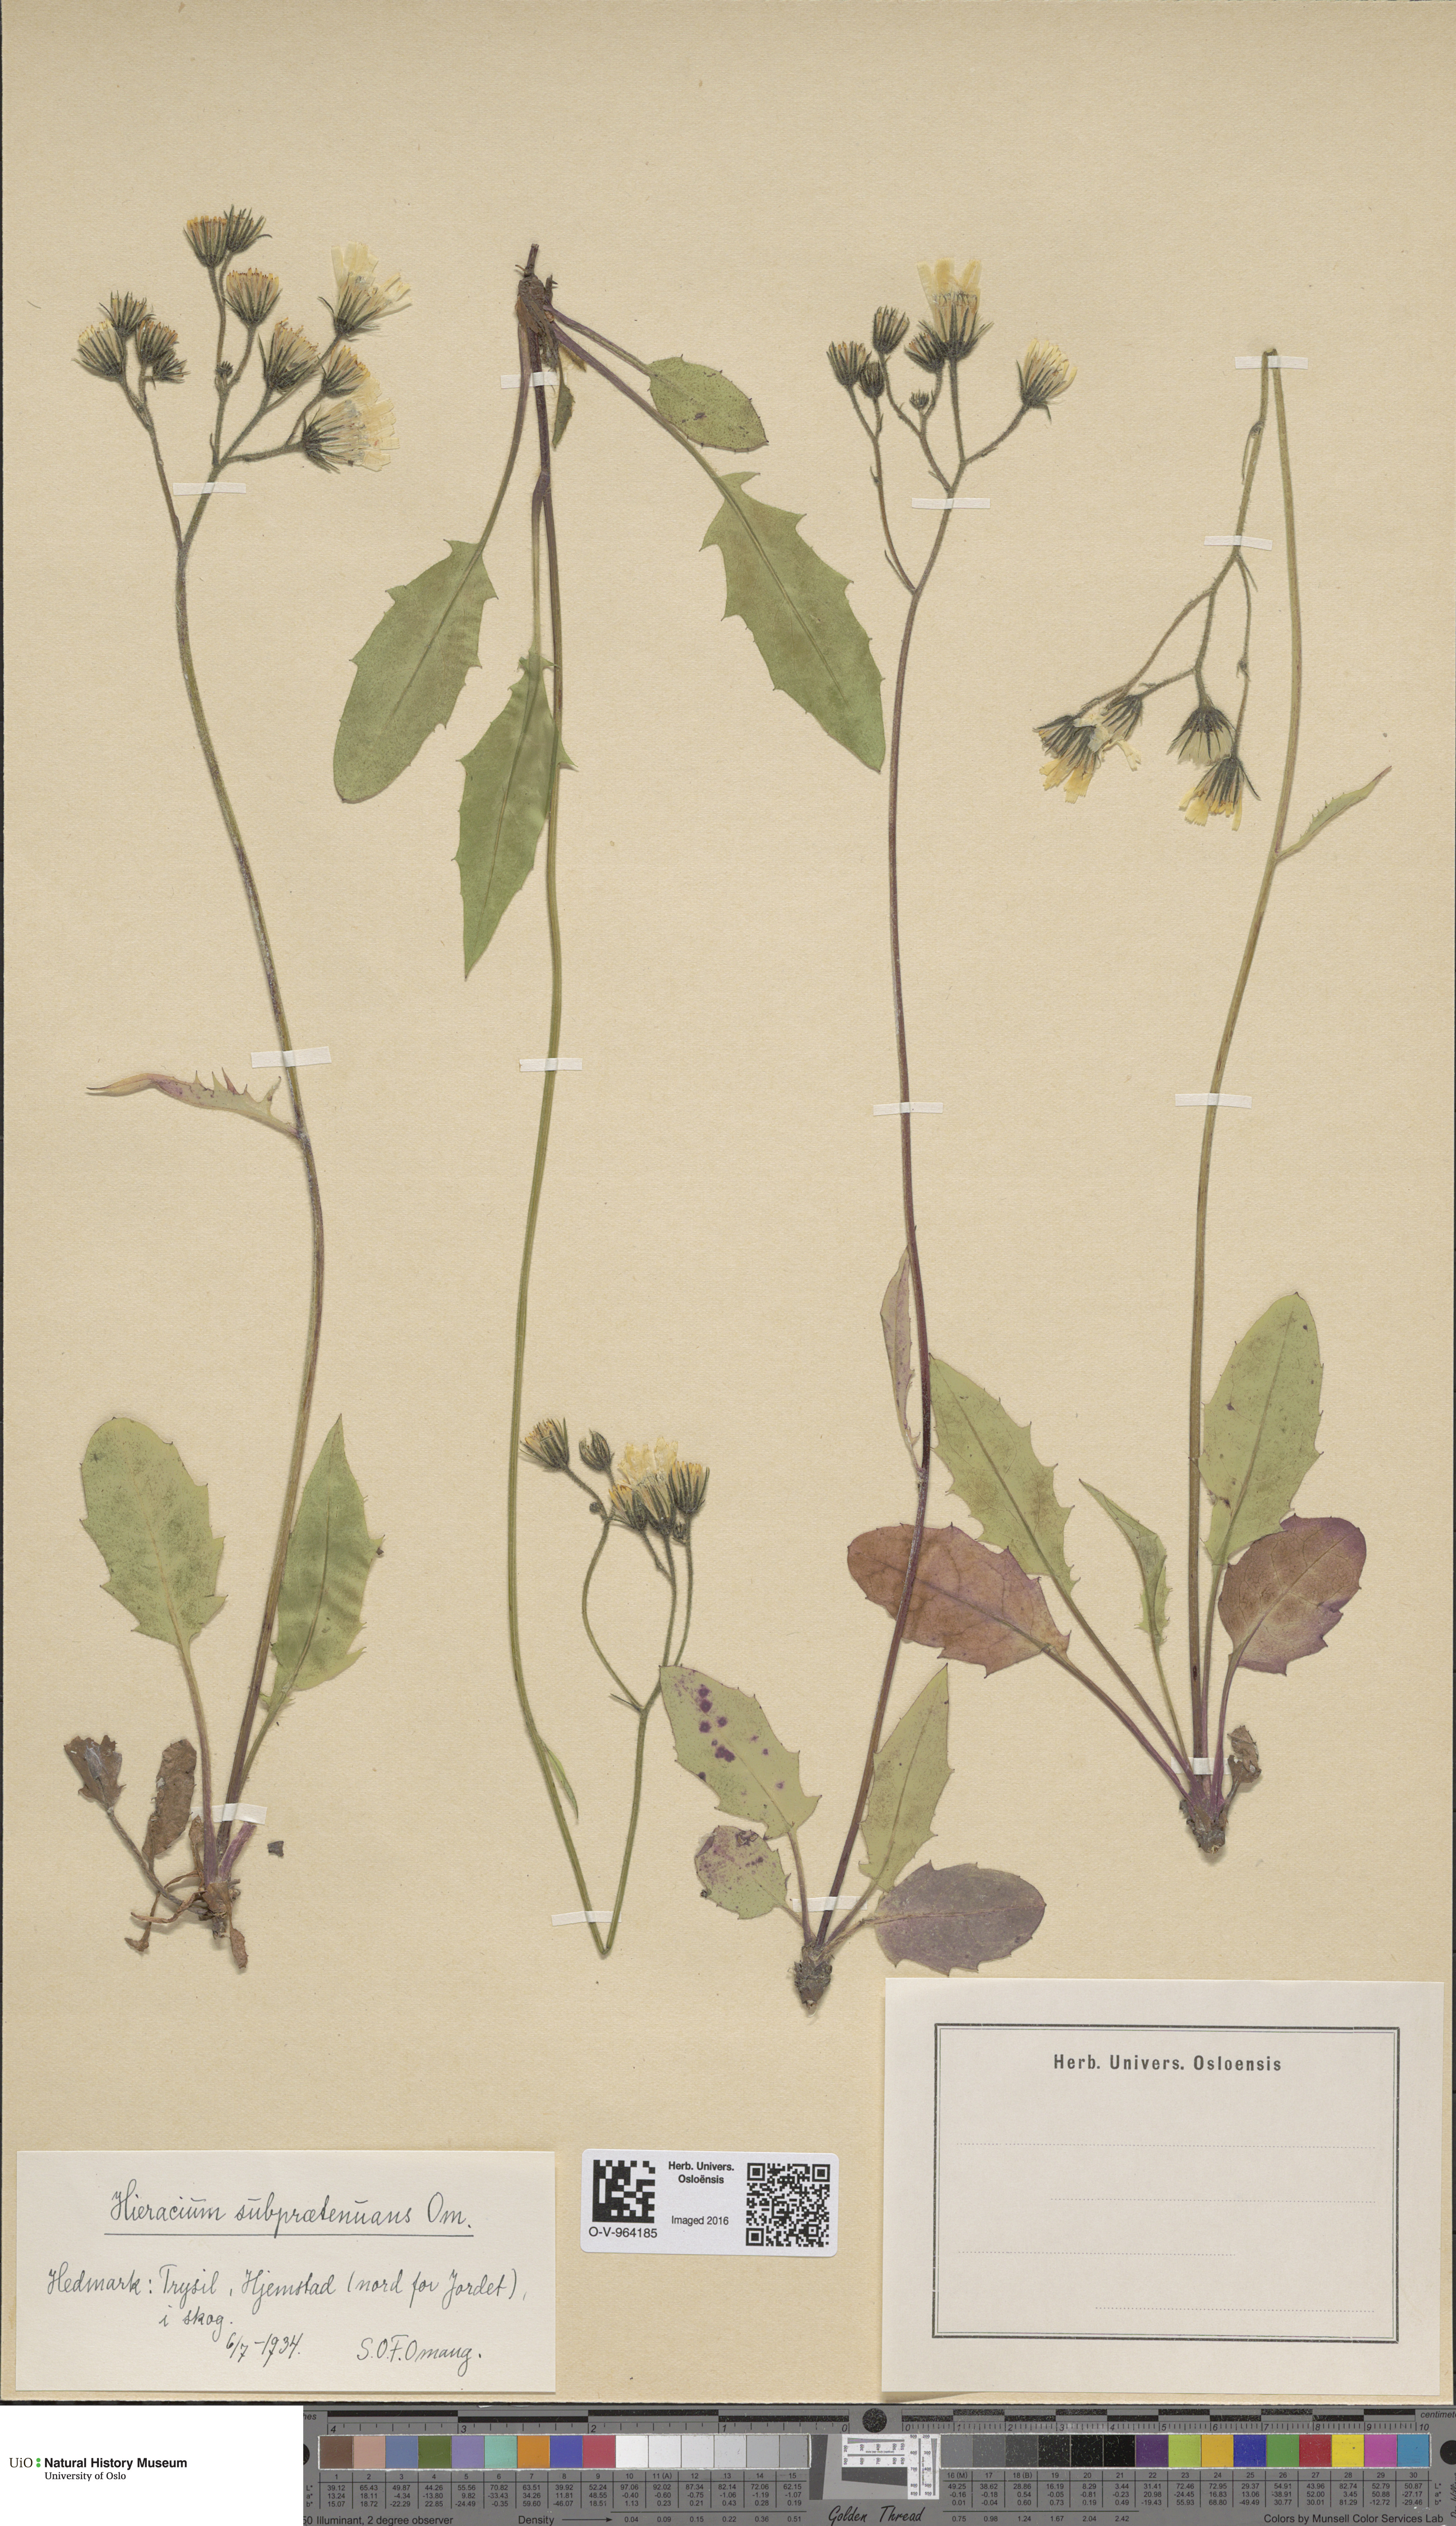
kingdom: Plantae
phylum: Tracheophyta
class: Magnoliopsida
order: Asterales
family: Asteraceae
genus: Hieracium
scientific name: Hieracium
